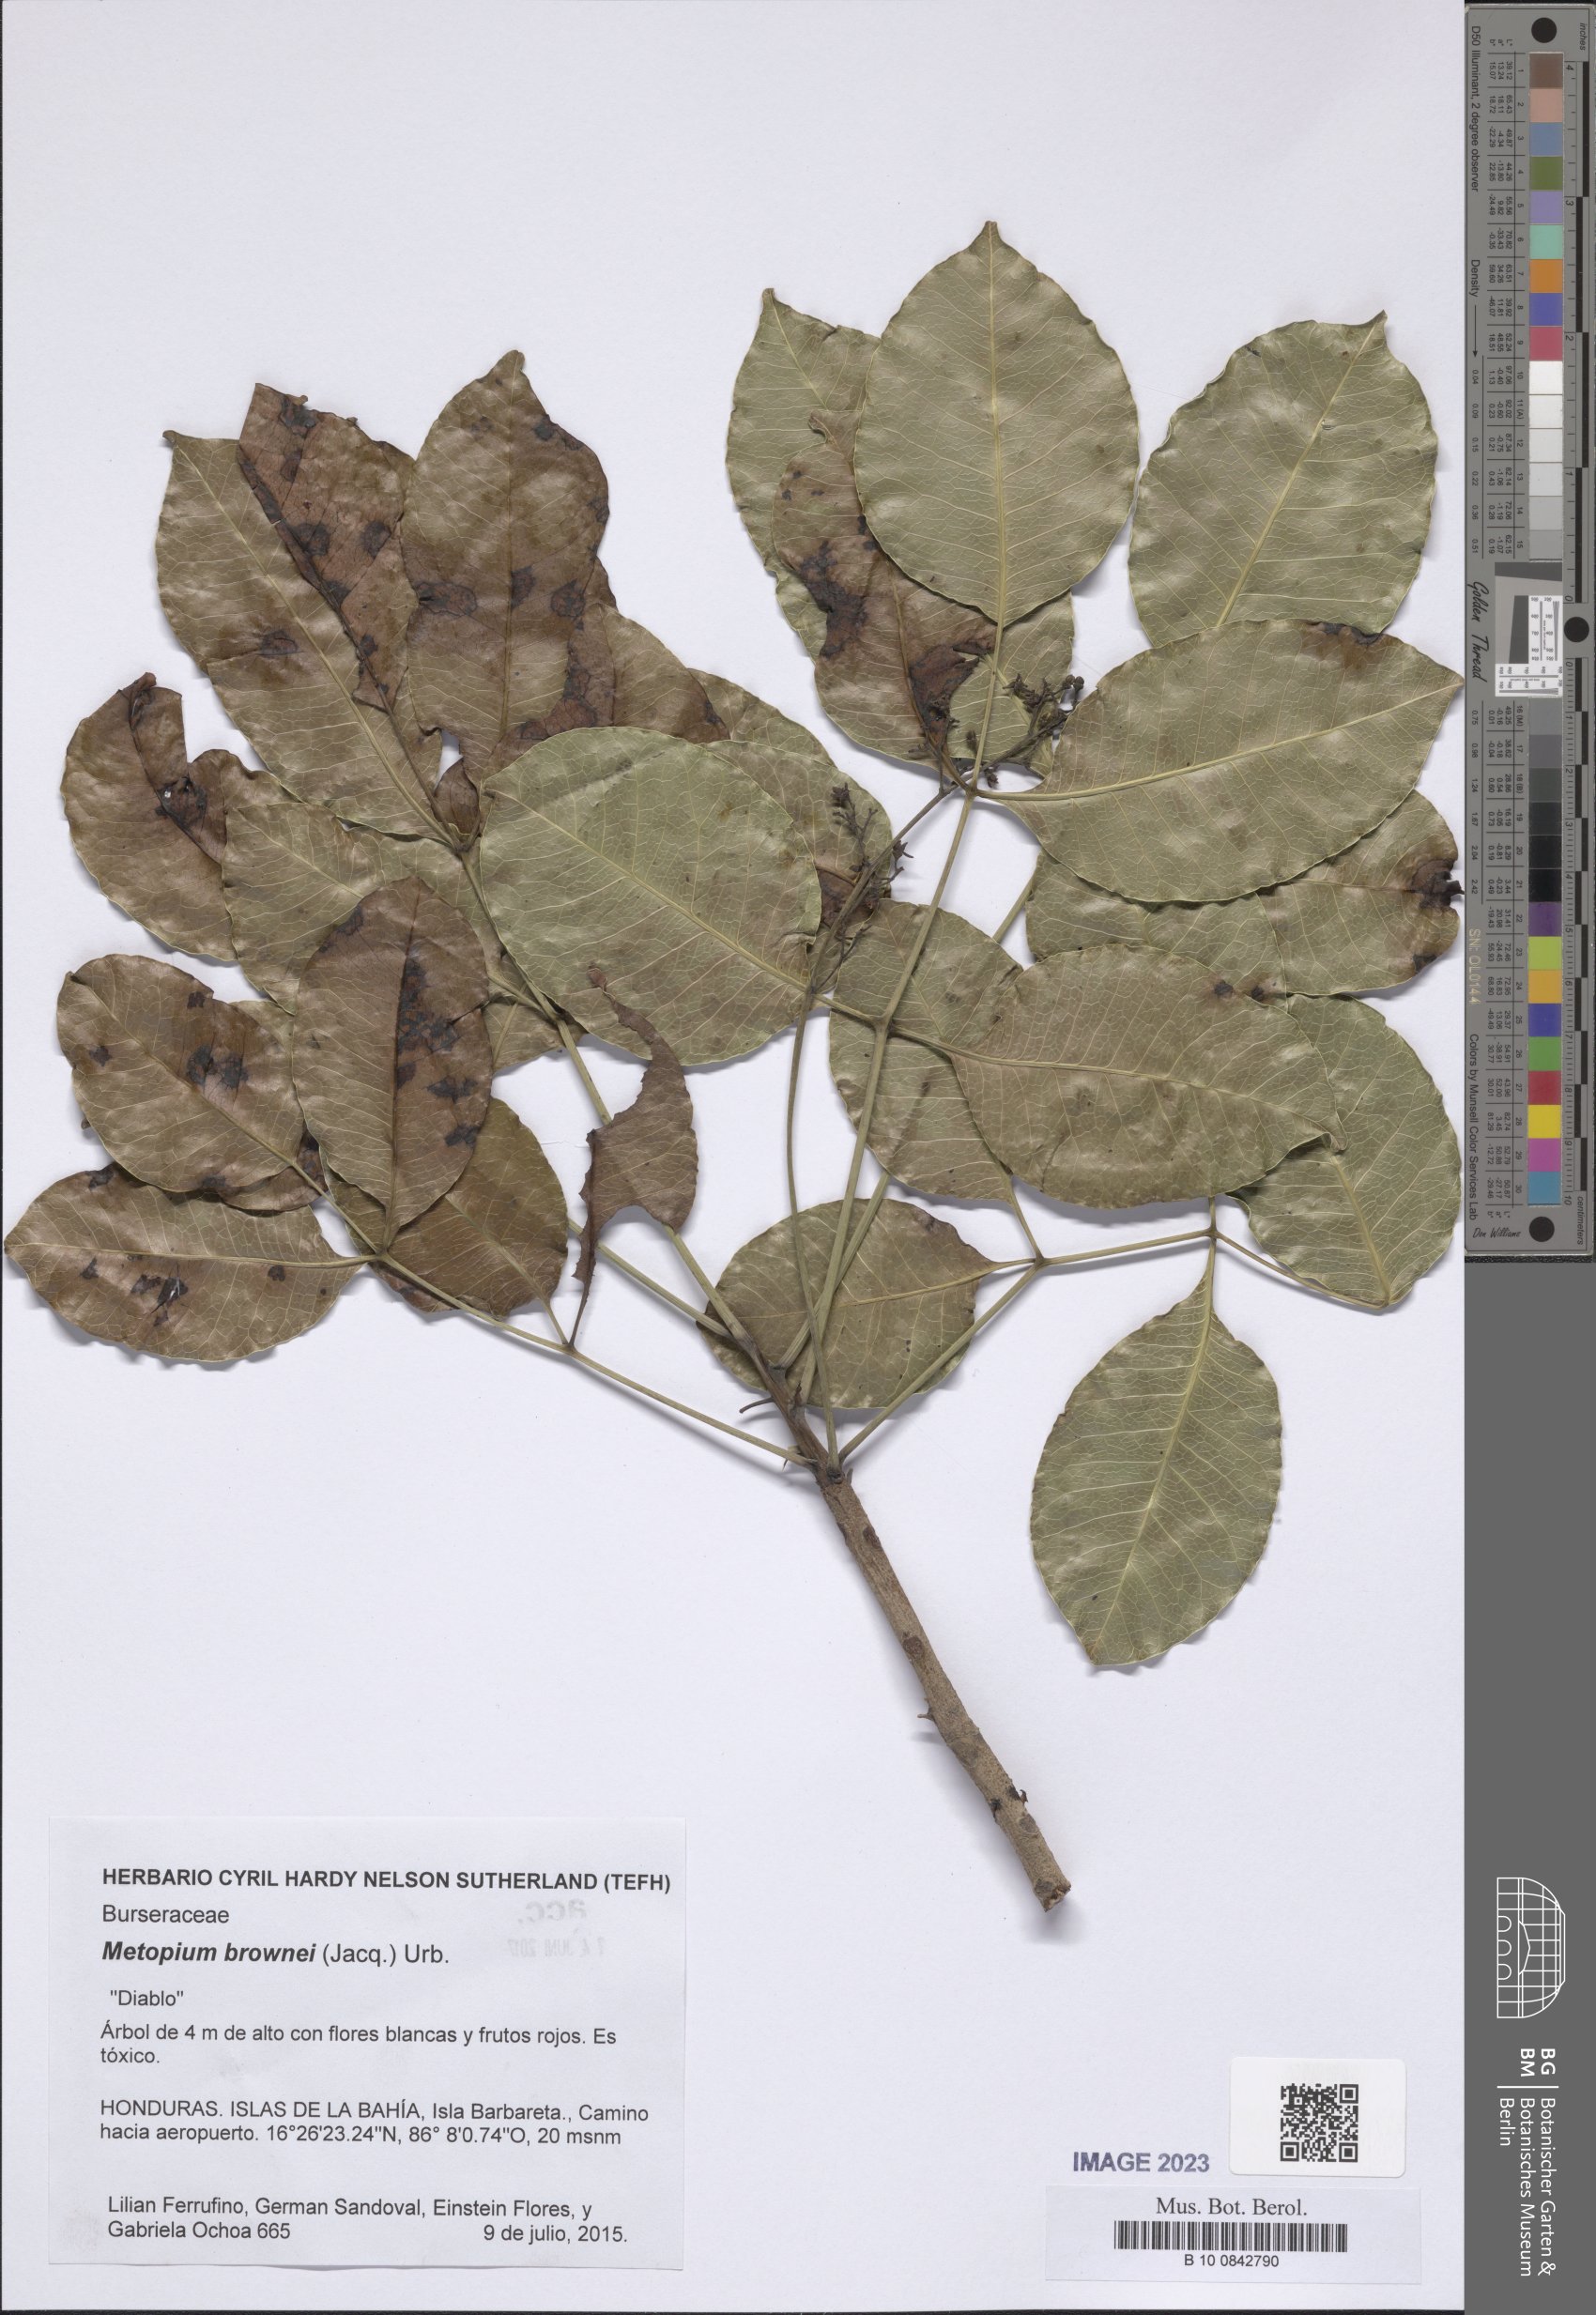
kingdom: Plantae
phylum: Tracheophyta
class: Magnoliopsida
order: Sapindales
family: Anacardiaceae
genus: Metopium
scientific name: Metopium brownei
